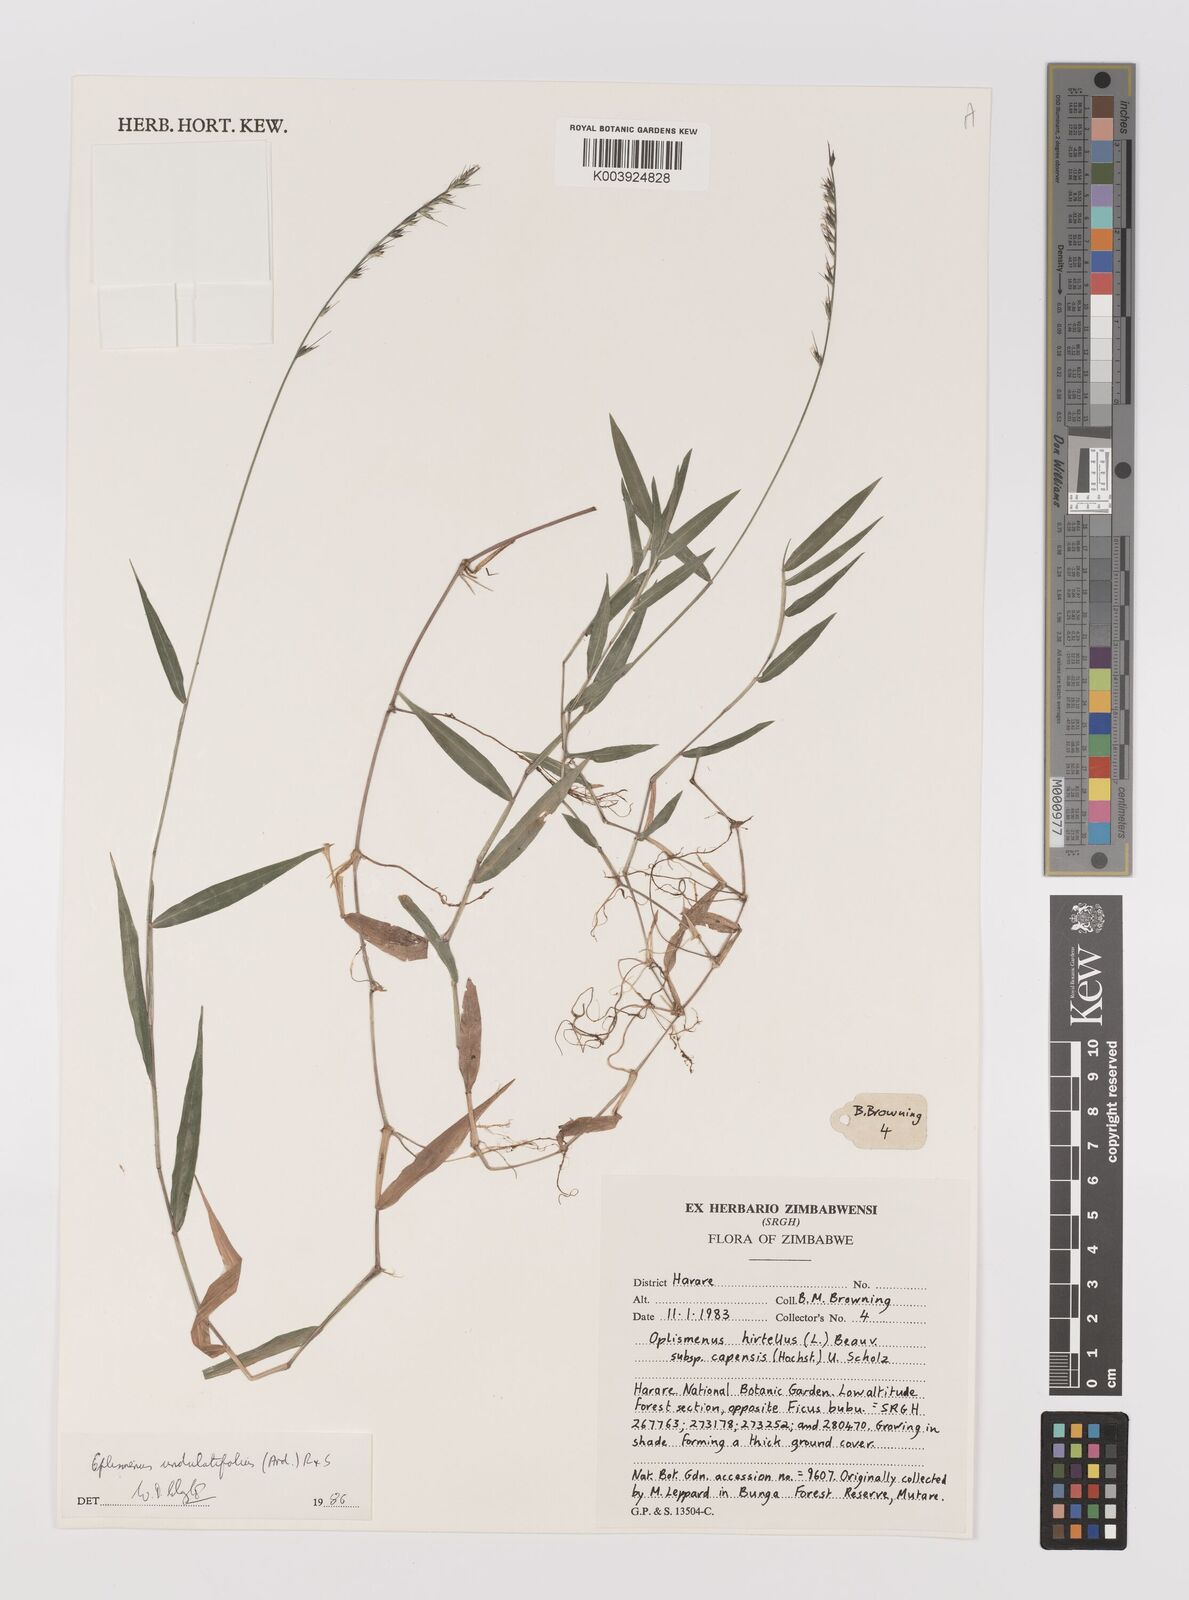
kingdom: Plantae
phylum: Tracheophyta
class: Liliopsida
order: Poales
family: Poaceae
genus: Oplismenus
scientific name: Oplismenus undulatifolius
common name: Wavyleaf basketgrass
